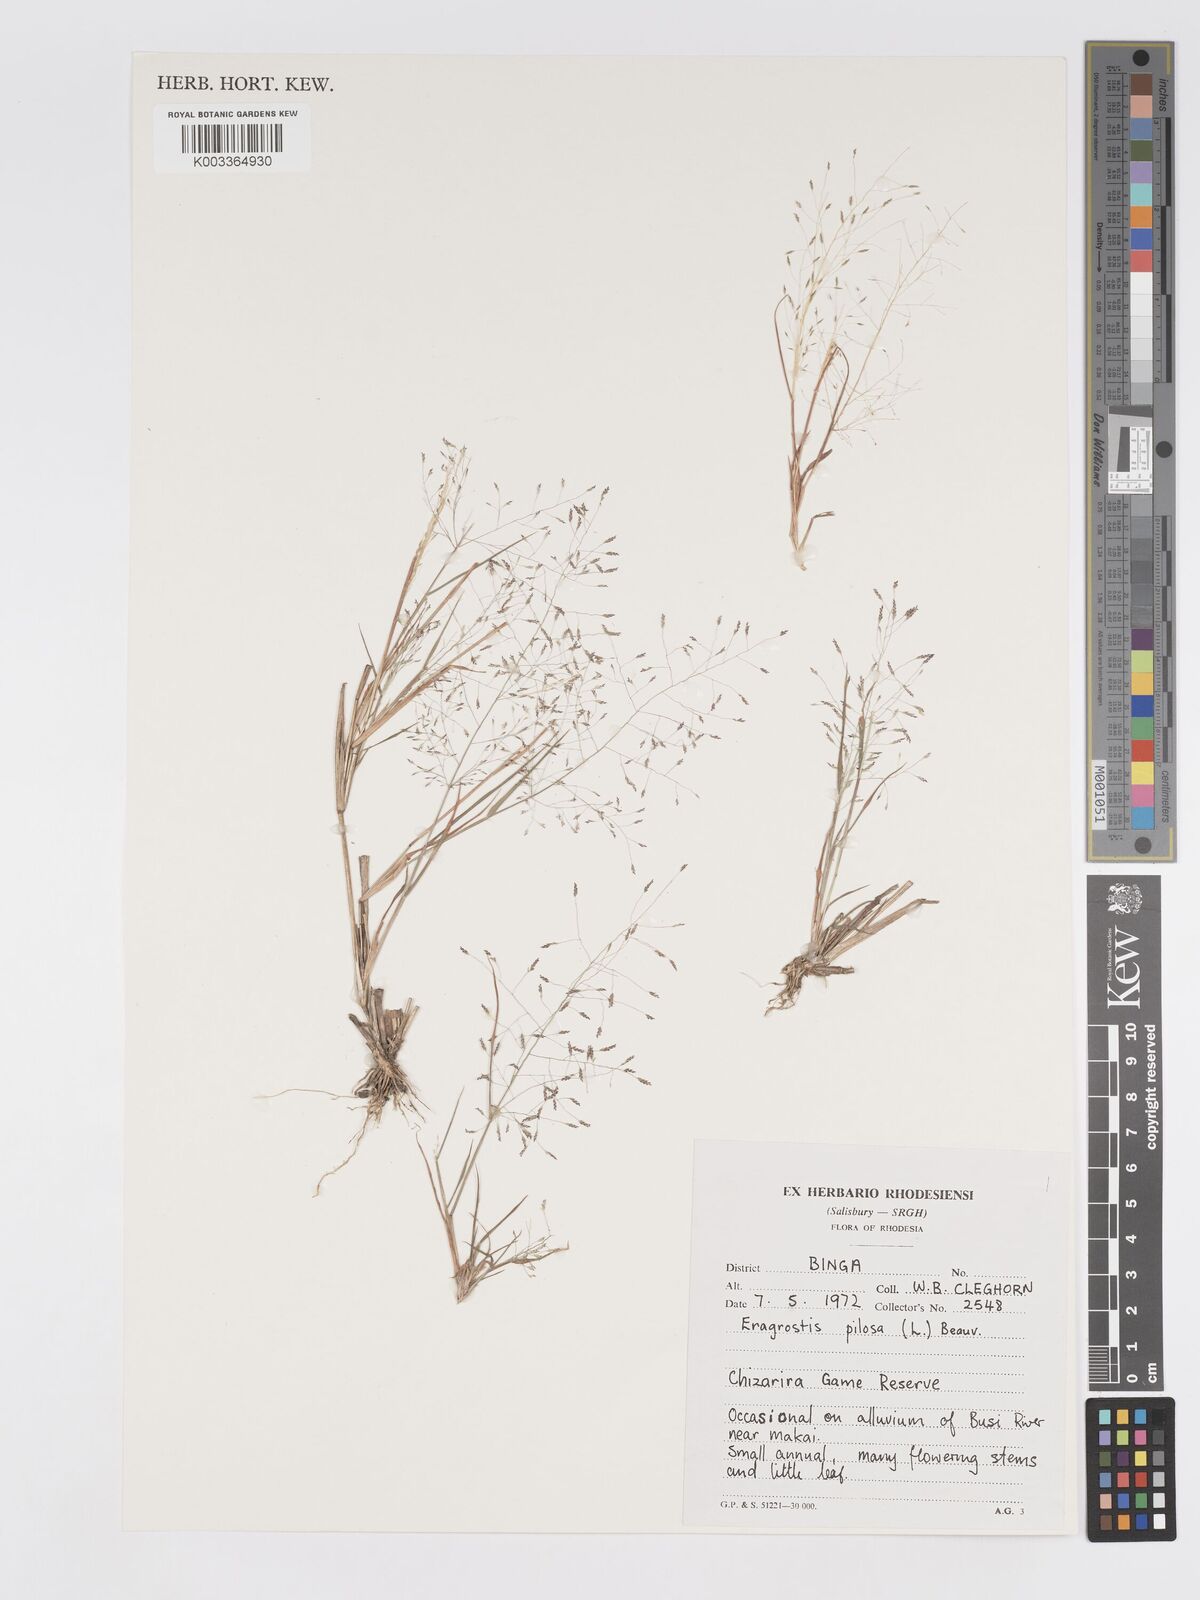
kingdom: Plantae
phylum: Tracheophyta
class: Liliopsida
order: Poales
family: Poaceae
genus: Eragrostis
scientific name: Eragrostis pilosa
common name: Indian lovegrass
